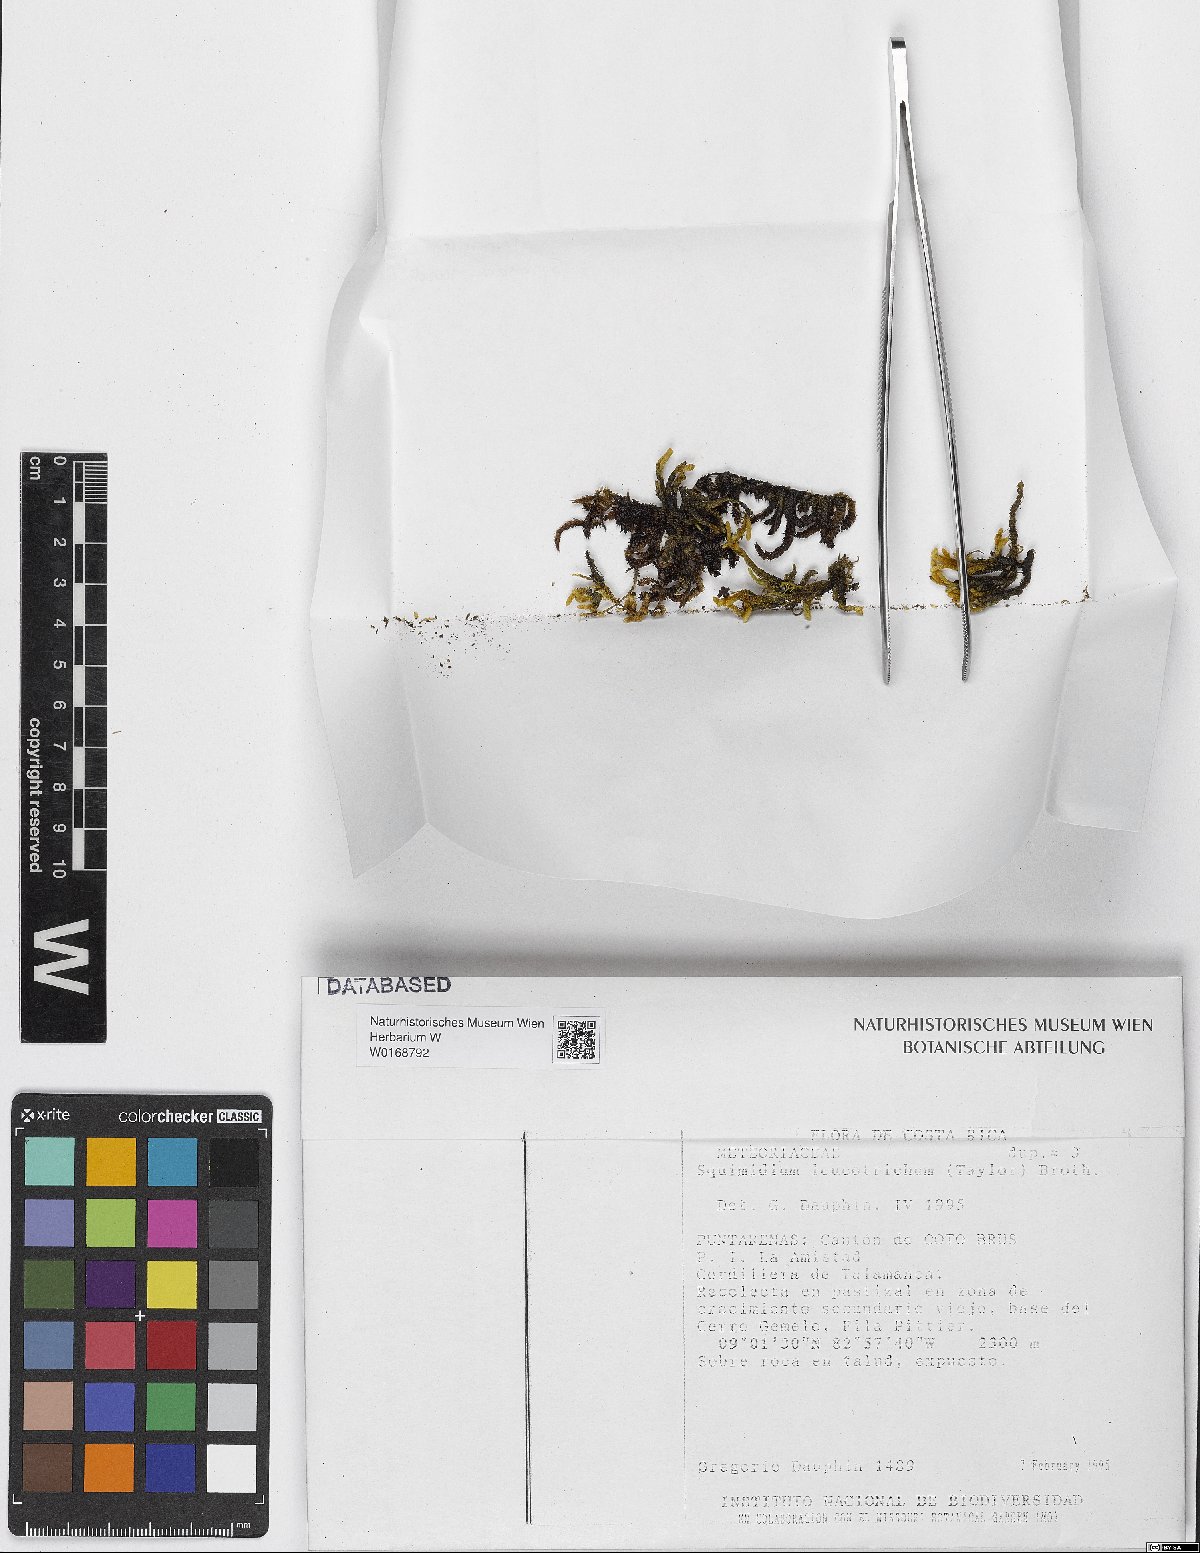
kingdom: Plantae
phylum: Bryophyta
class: Bryopsida
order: Hypnales
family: Brachytheciaceae
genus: Squamidium
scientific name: Squamidium leucotrichum
